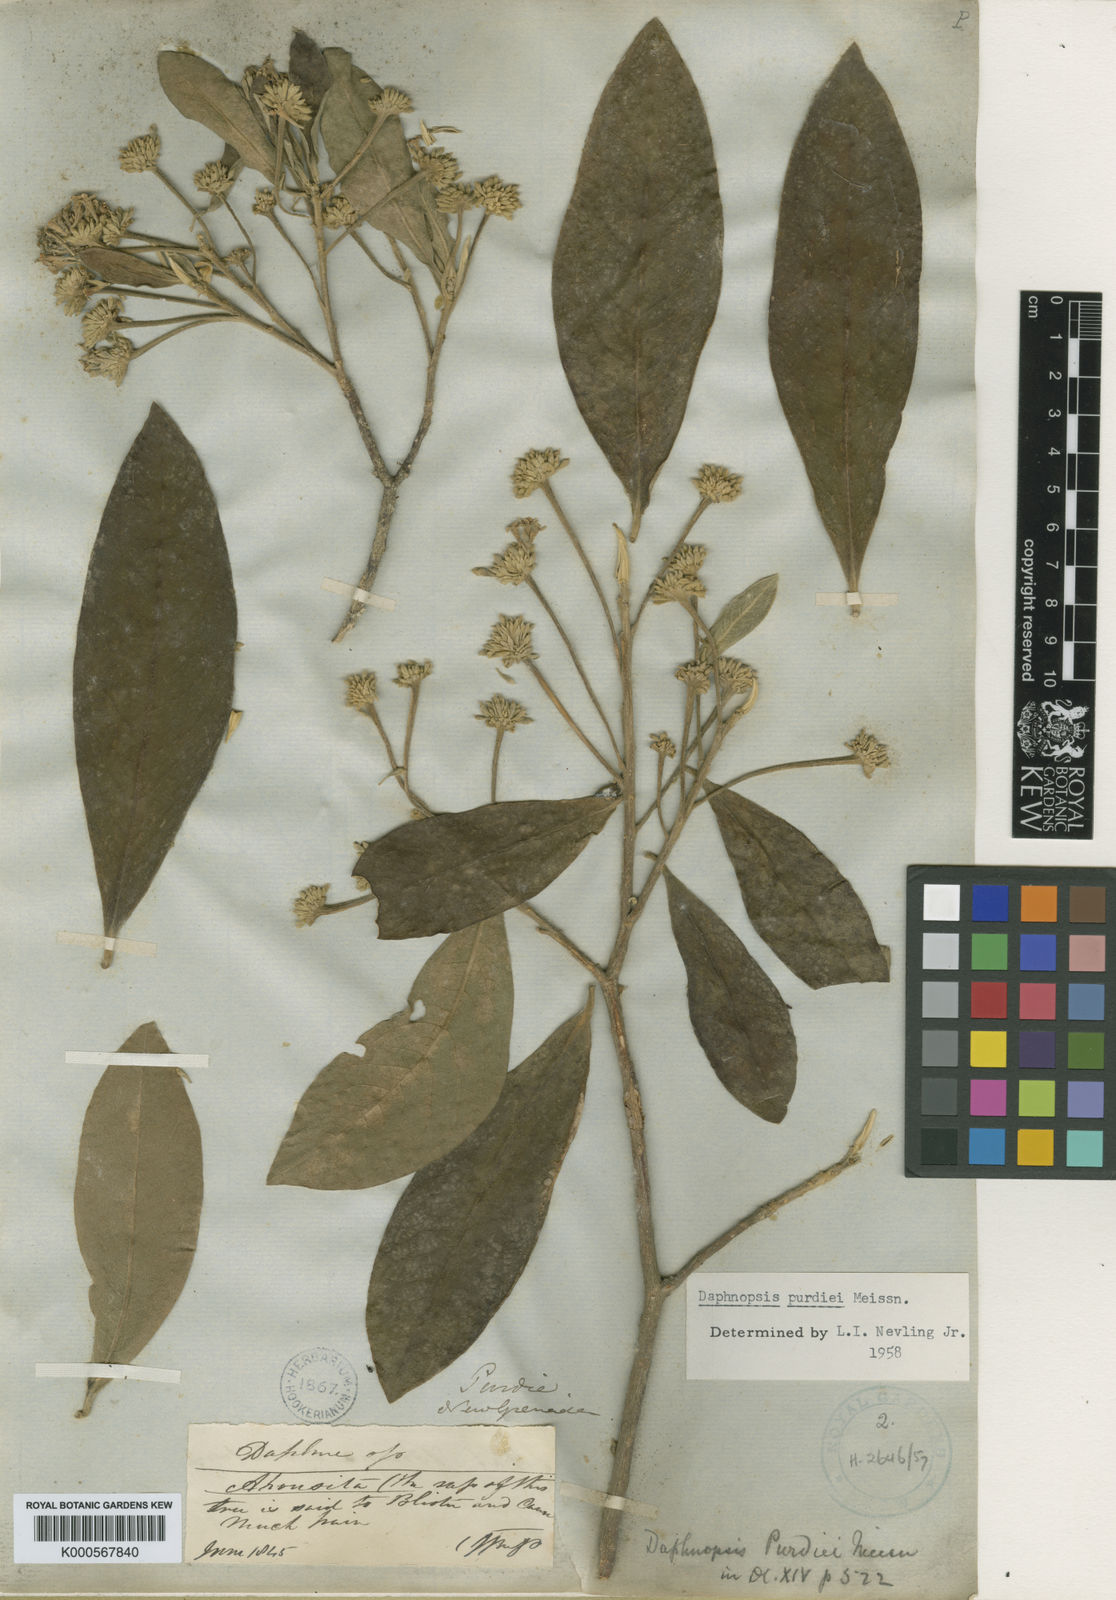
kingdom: Plantae
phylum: Tracheophyta
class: Magnoliopsida
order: Malvales
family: Thymelaeaceae
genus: Daphnopsis
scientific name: Daphnopsis purdiei
